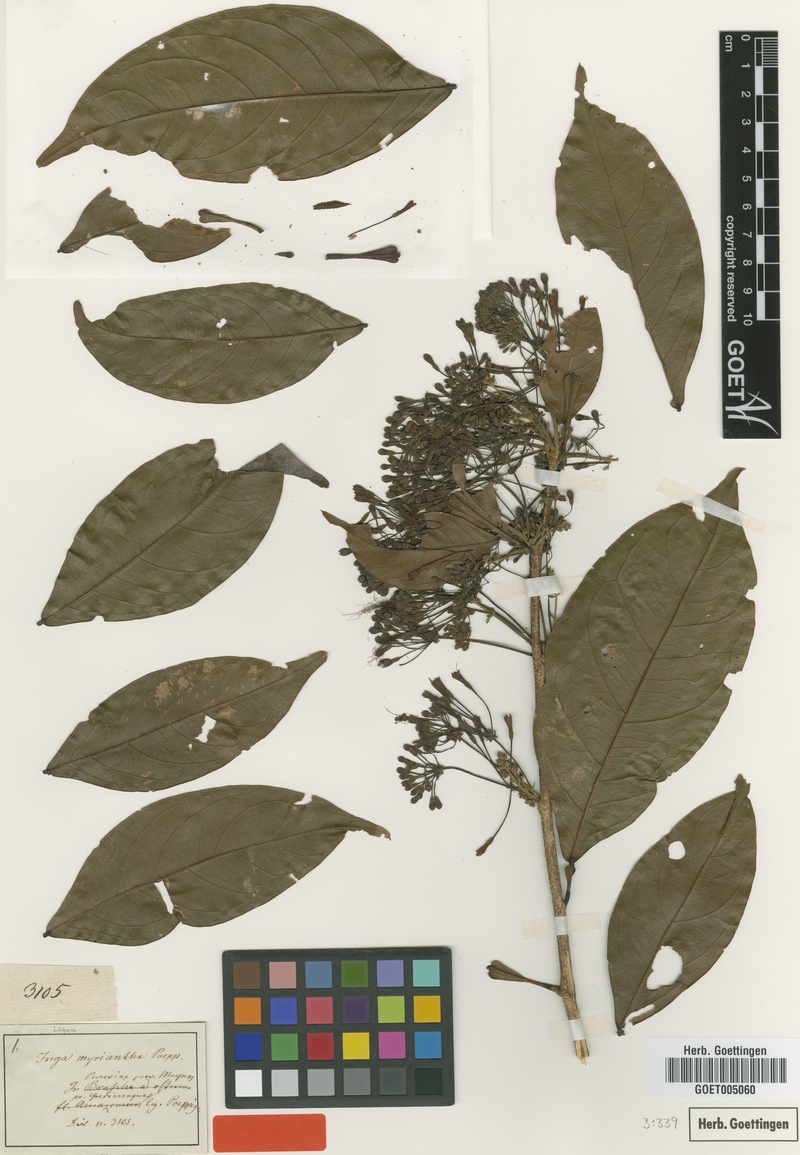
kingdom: Plantae
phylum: Tracheophyta
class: Magnoliopsida
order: Fabales
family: Fabaceae
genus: Inga
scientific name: Inga umbellifera
